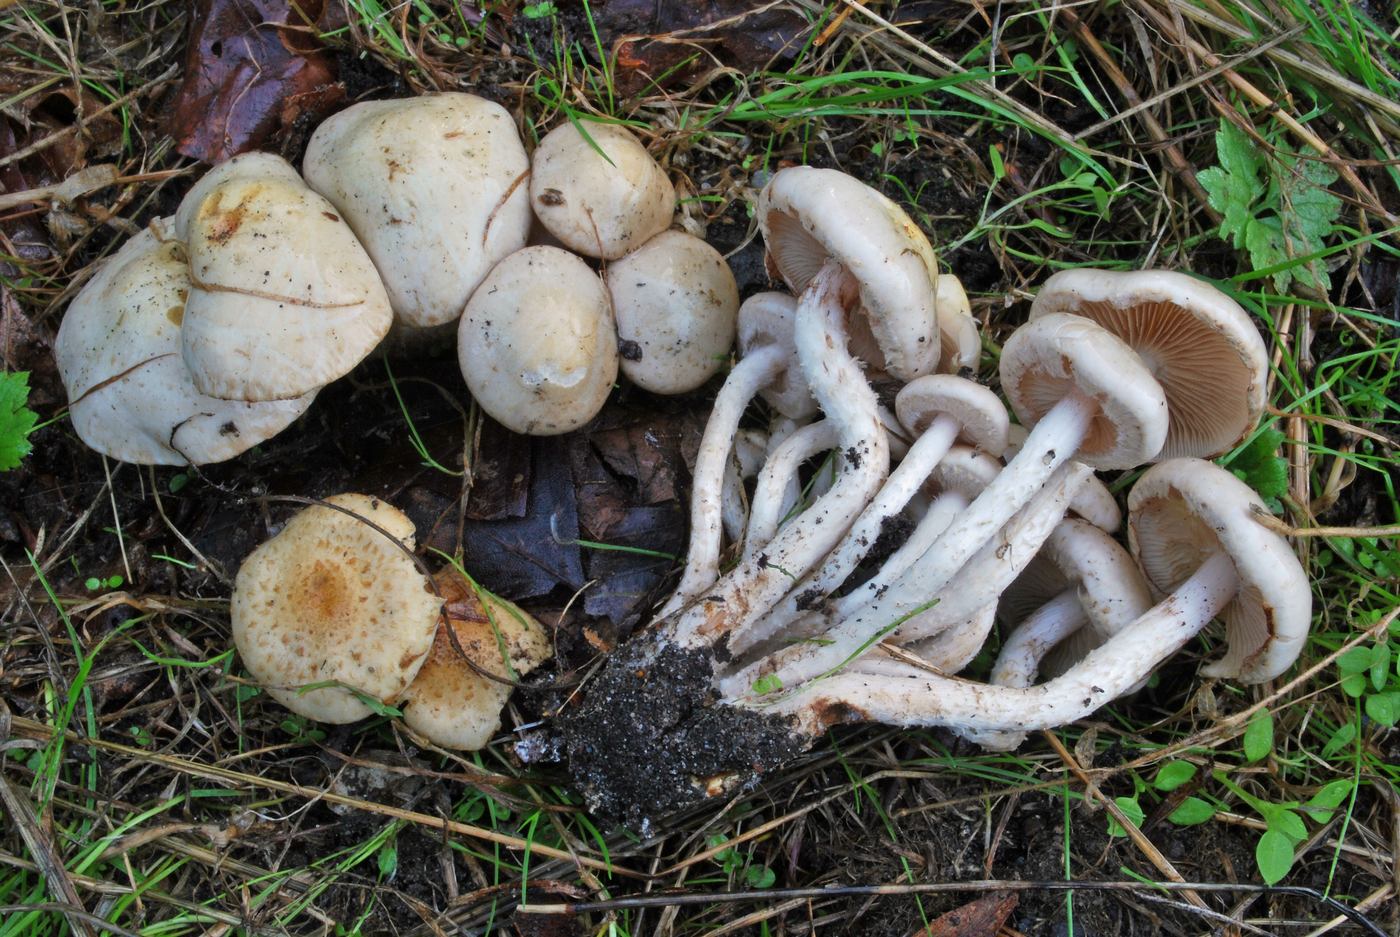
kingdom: Fungi
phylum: Basidiomycota
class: Agaricomycetes
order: Agaricales
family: Strophariaceae
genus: Pholiota
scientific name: Pholiota gummosa
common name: grøngul skælhat
